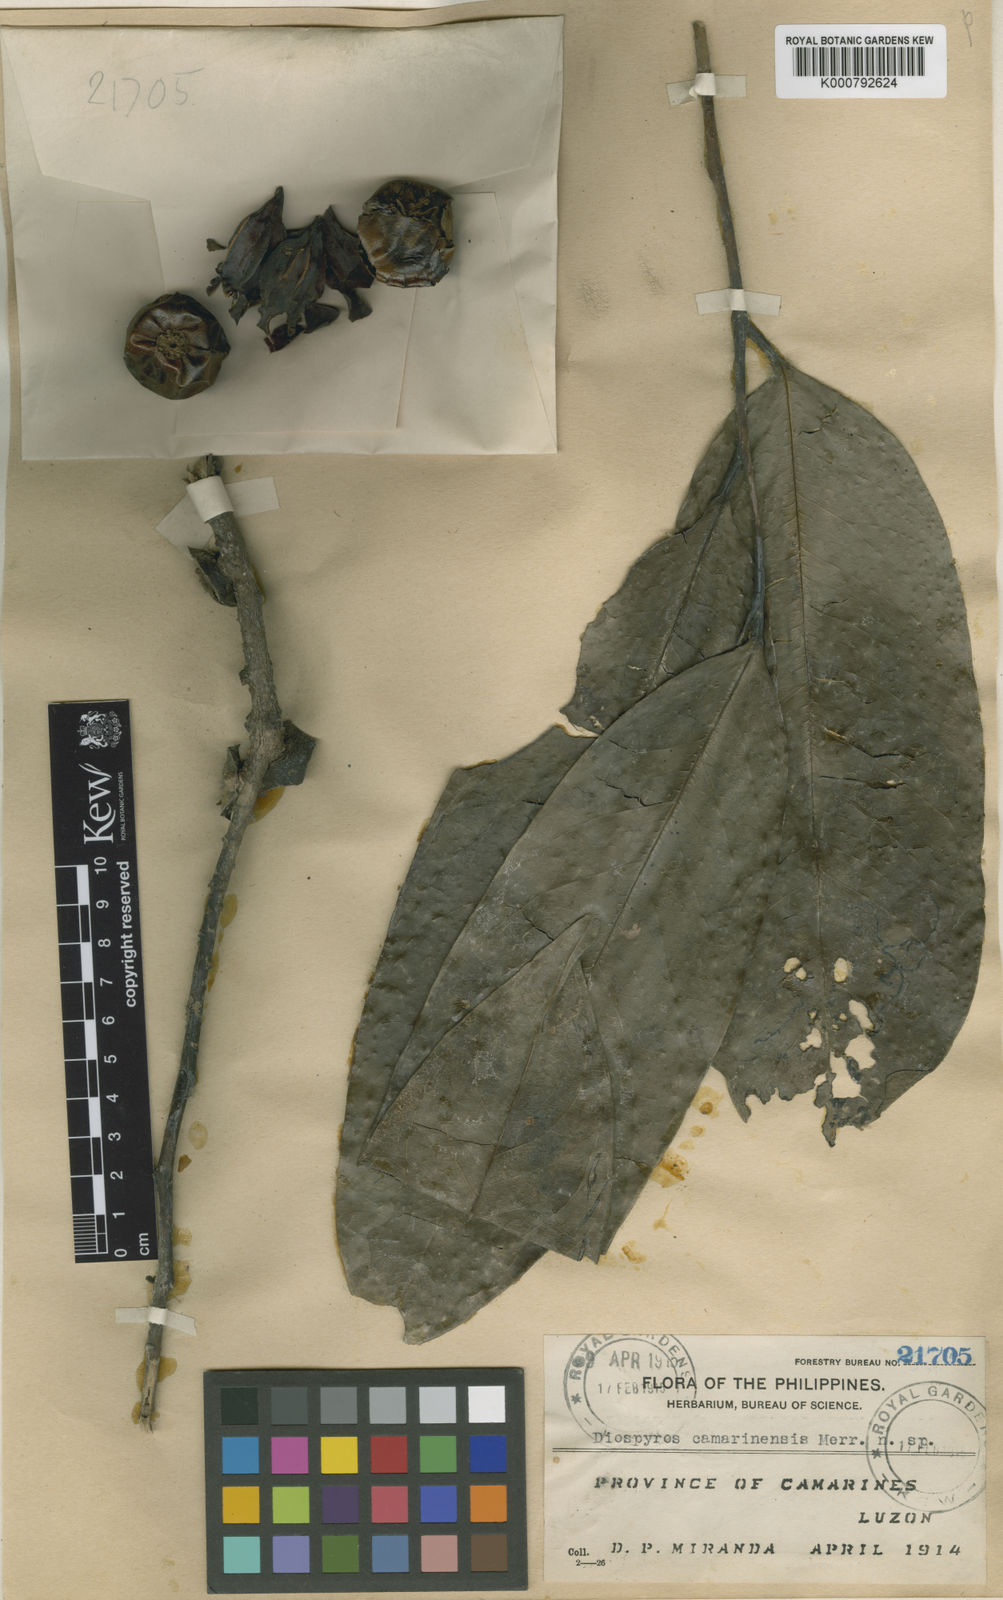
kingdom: Plantae
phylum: Tracheophyta
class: Magnoliopsida
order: Ericales
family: Ebenaceae
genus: Diospyros
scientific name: Diospyros maritima
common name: Malaysian persimmon
